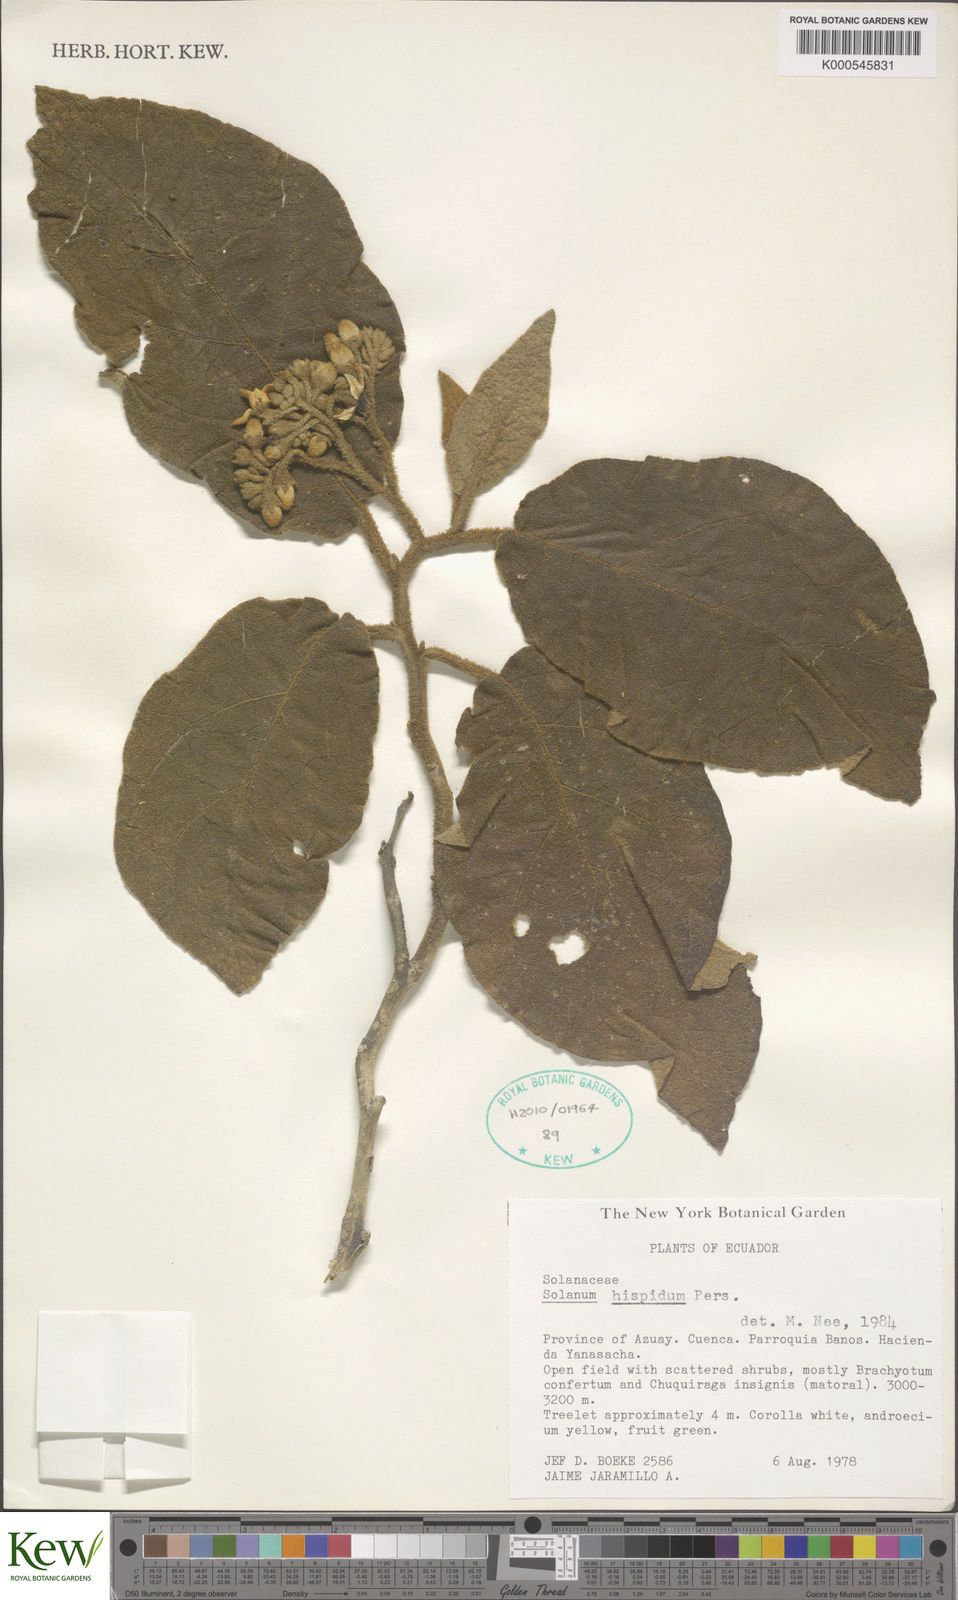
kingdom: Plantae
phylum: Tracheophyta
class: Magnoliopsida
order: Solanales
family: Solanaceae
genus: Solanum
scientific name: Solanum asperolanatum
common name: Devil's-fig
